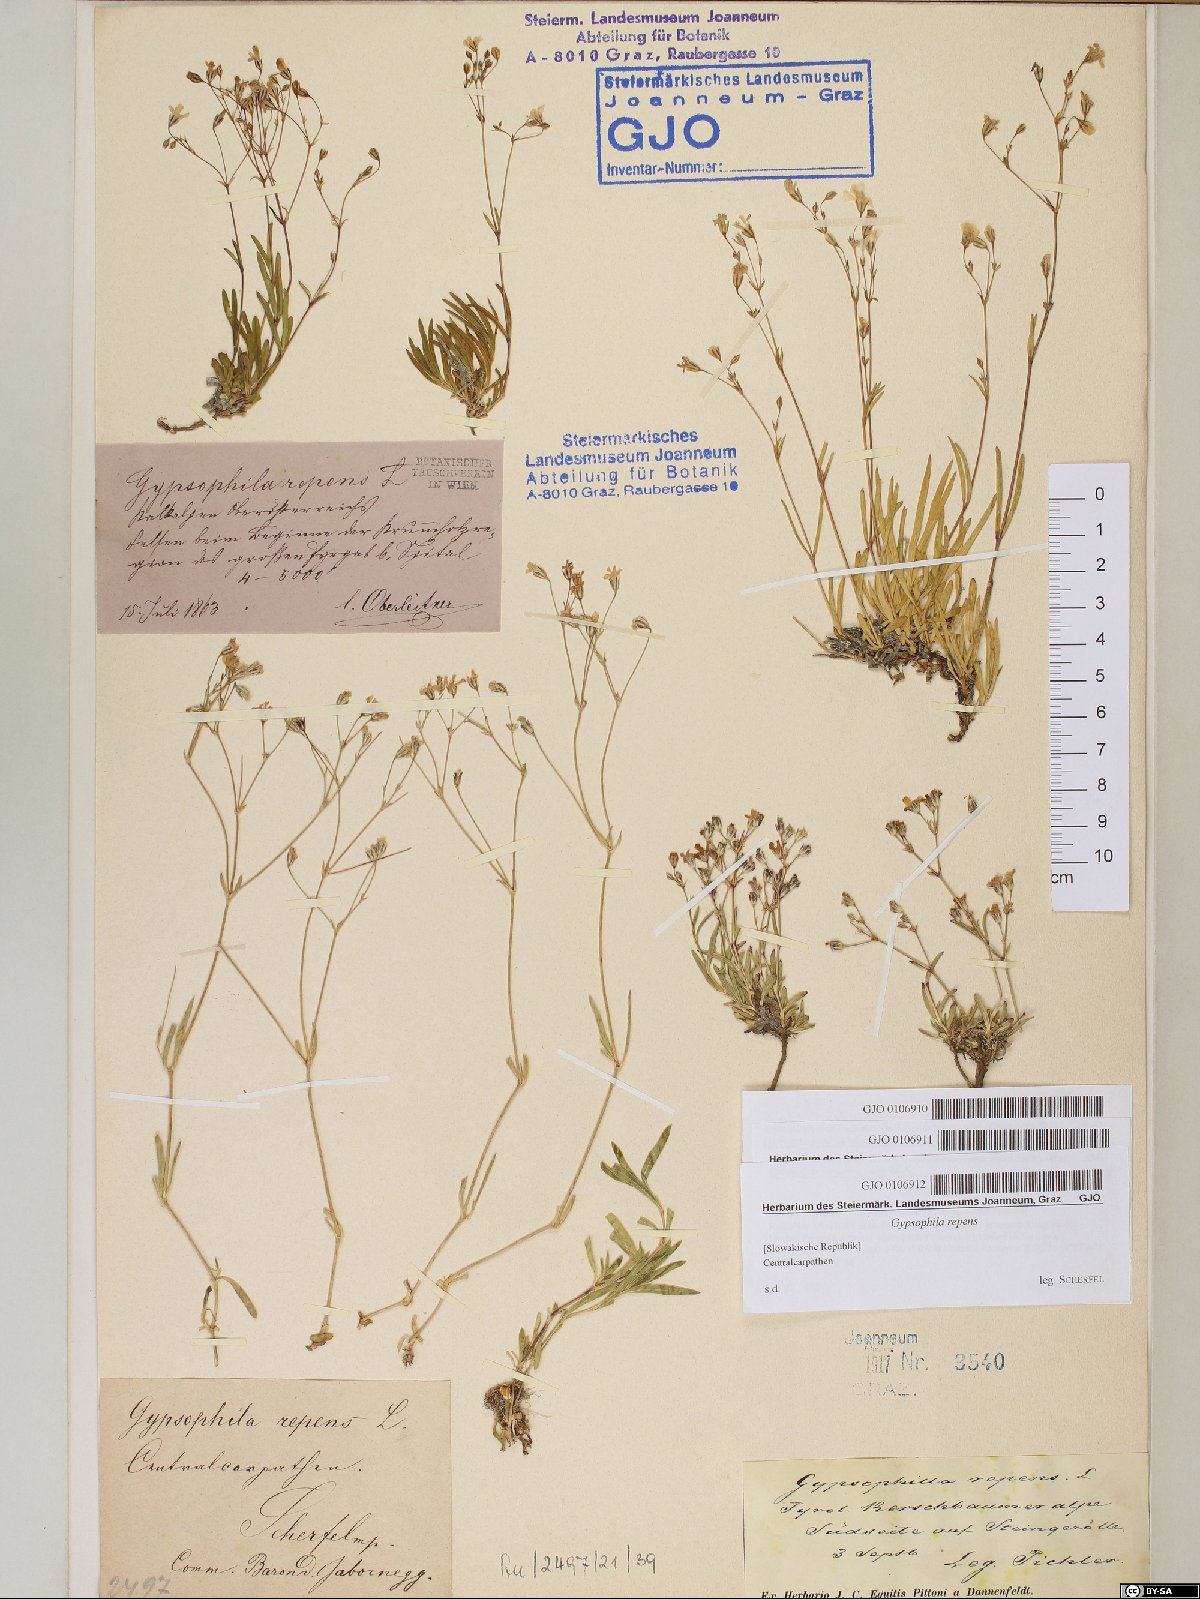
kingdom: Plantae
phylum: Tracheophyta
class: Magnoliopsida
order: Caryophyllales
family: Caryophyllaceae
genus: Gypsophila
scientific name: Gypsophila repens
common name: Creeping baby's-breath
